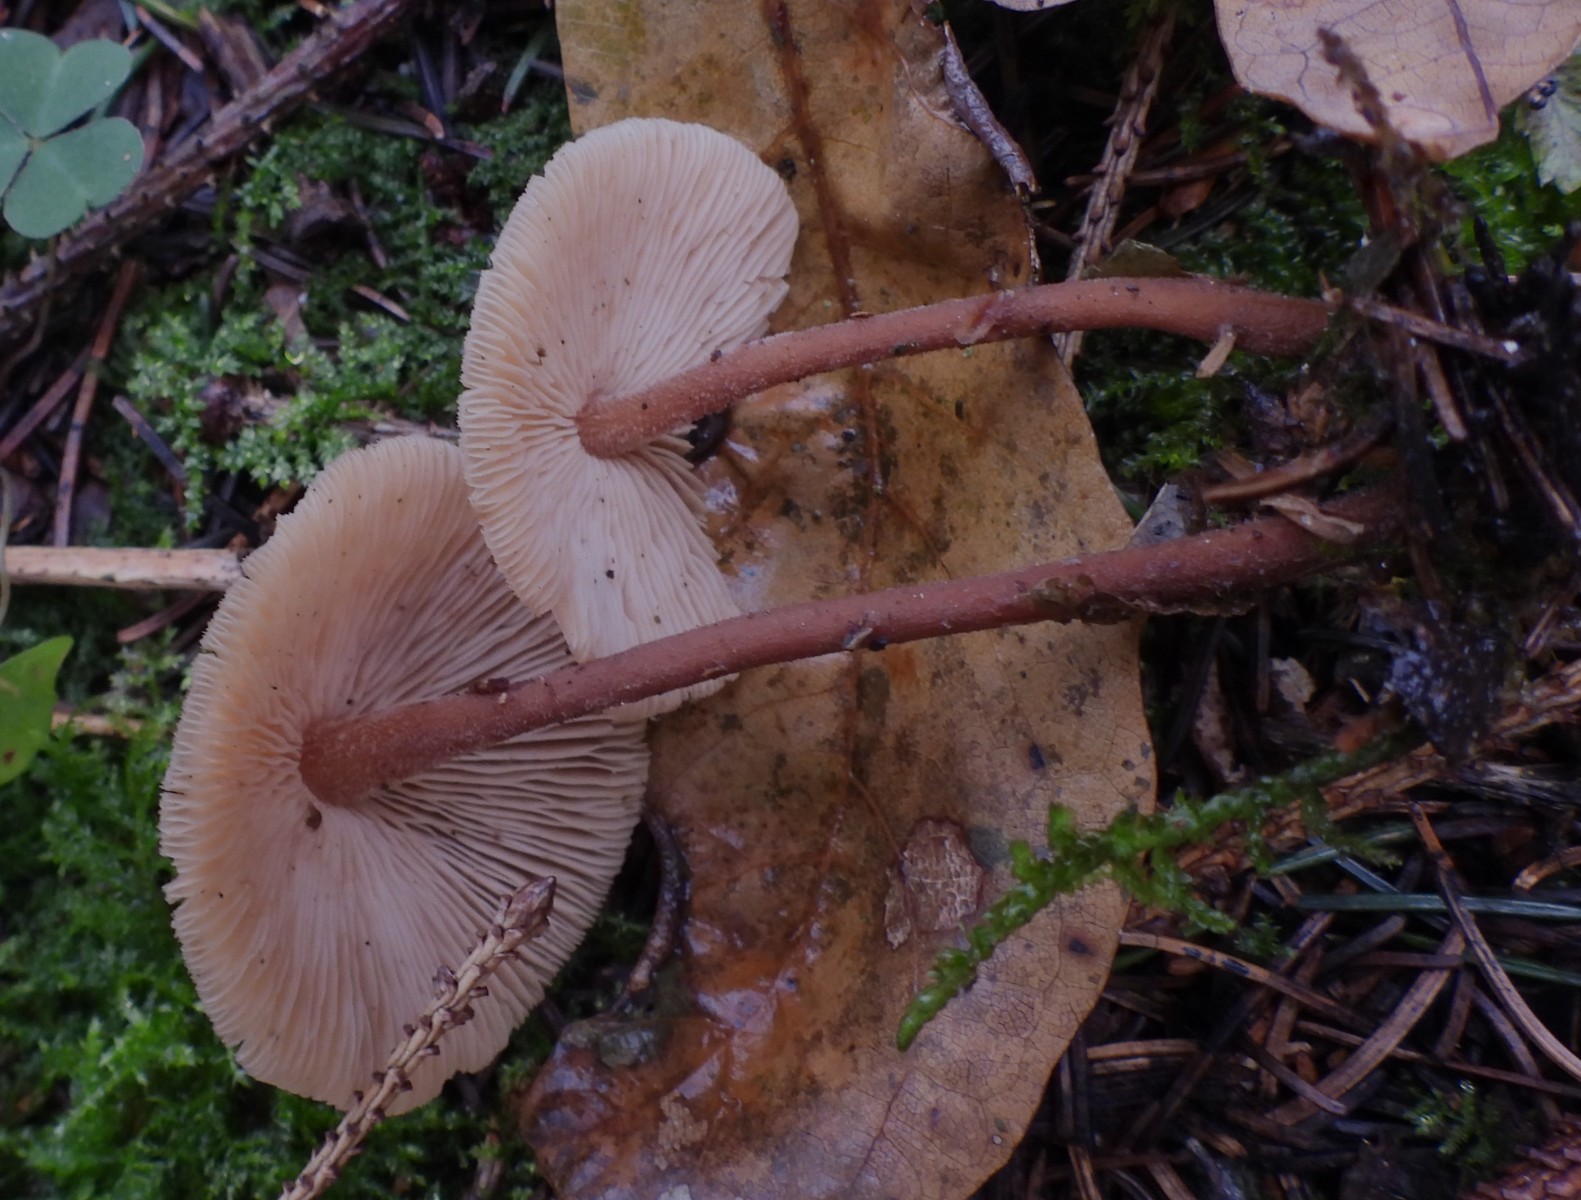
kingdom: Fungi
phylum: Basidiomycota
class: Agaricomycetes
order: Agaricales
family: Omphalotaceae
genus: Collybiopsis
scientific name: Collybiopsis confluens
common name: knippe-fladhat
